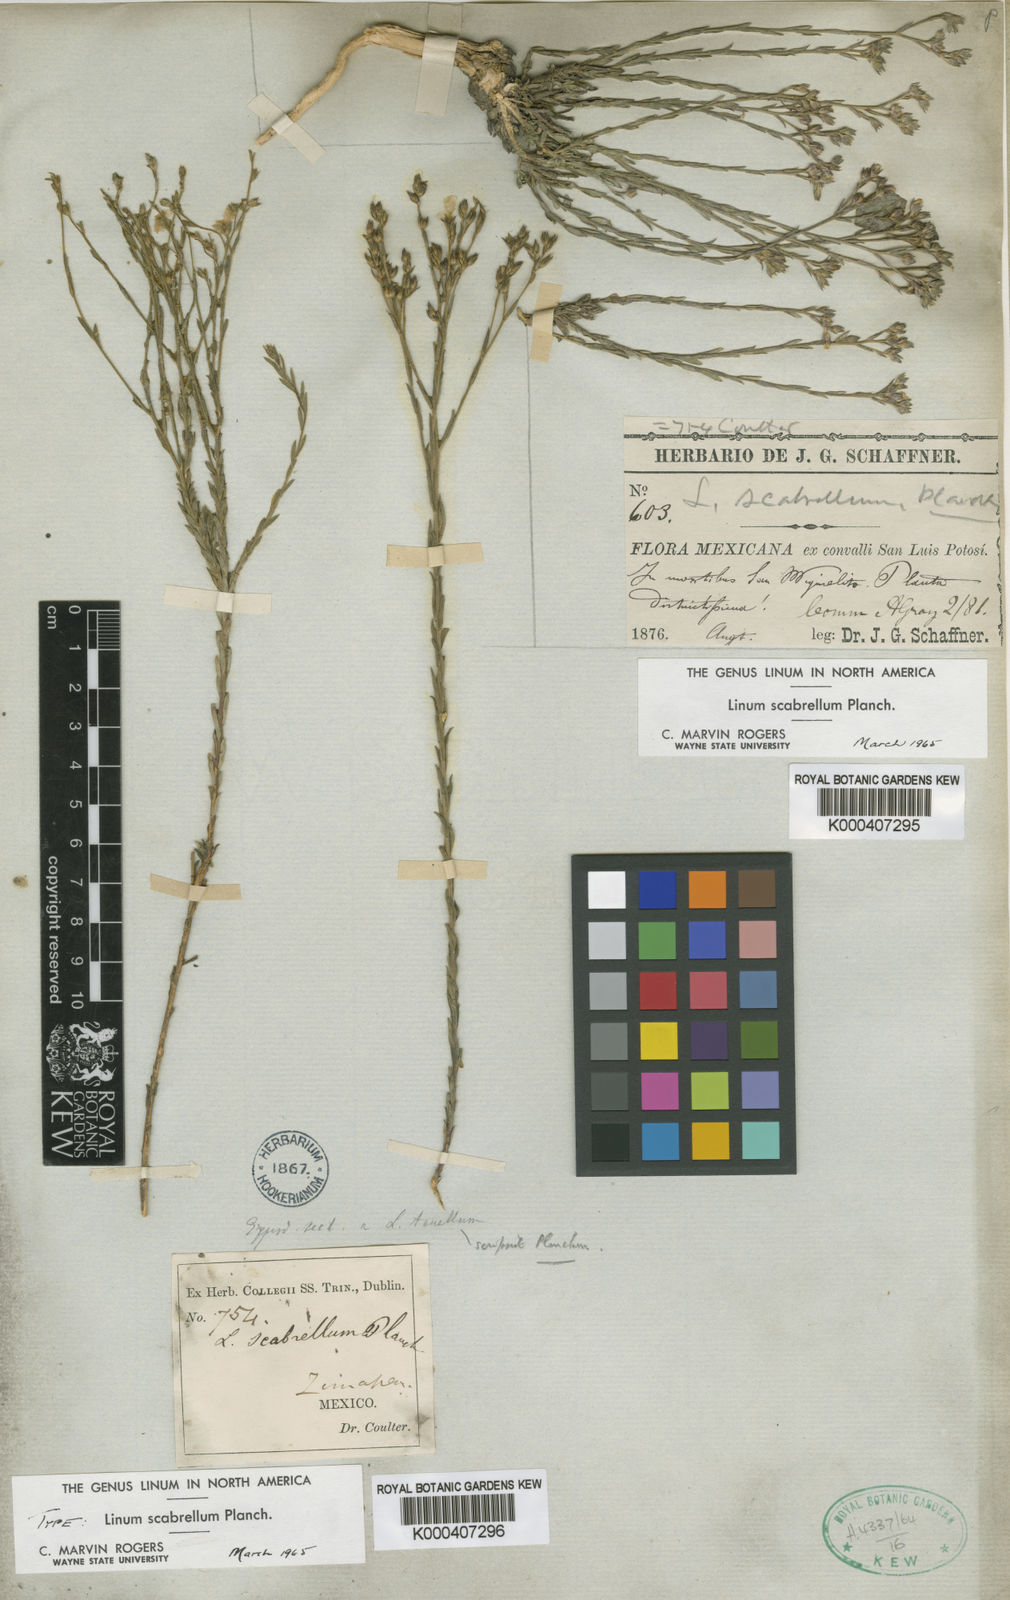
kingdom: Plantae
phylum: Tracheophyta
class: Magnoliopsida
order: Malpighiales
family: Linaceae
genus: Linum
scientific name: Linum scabrellum
